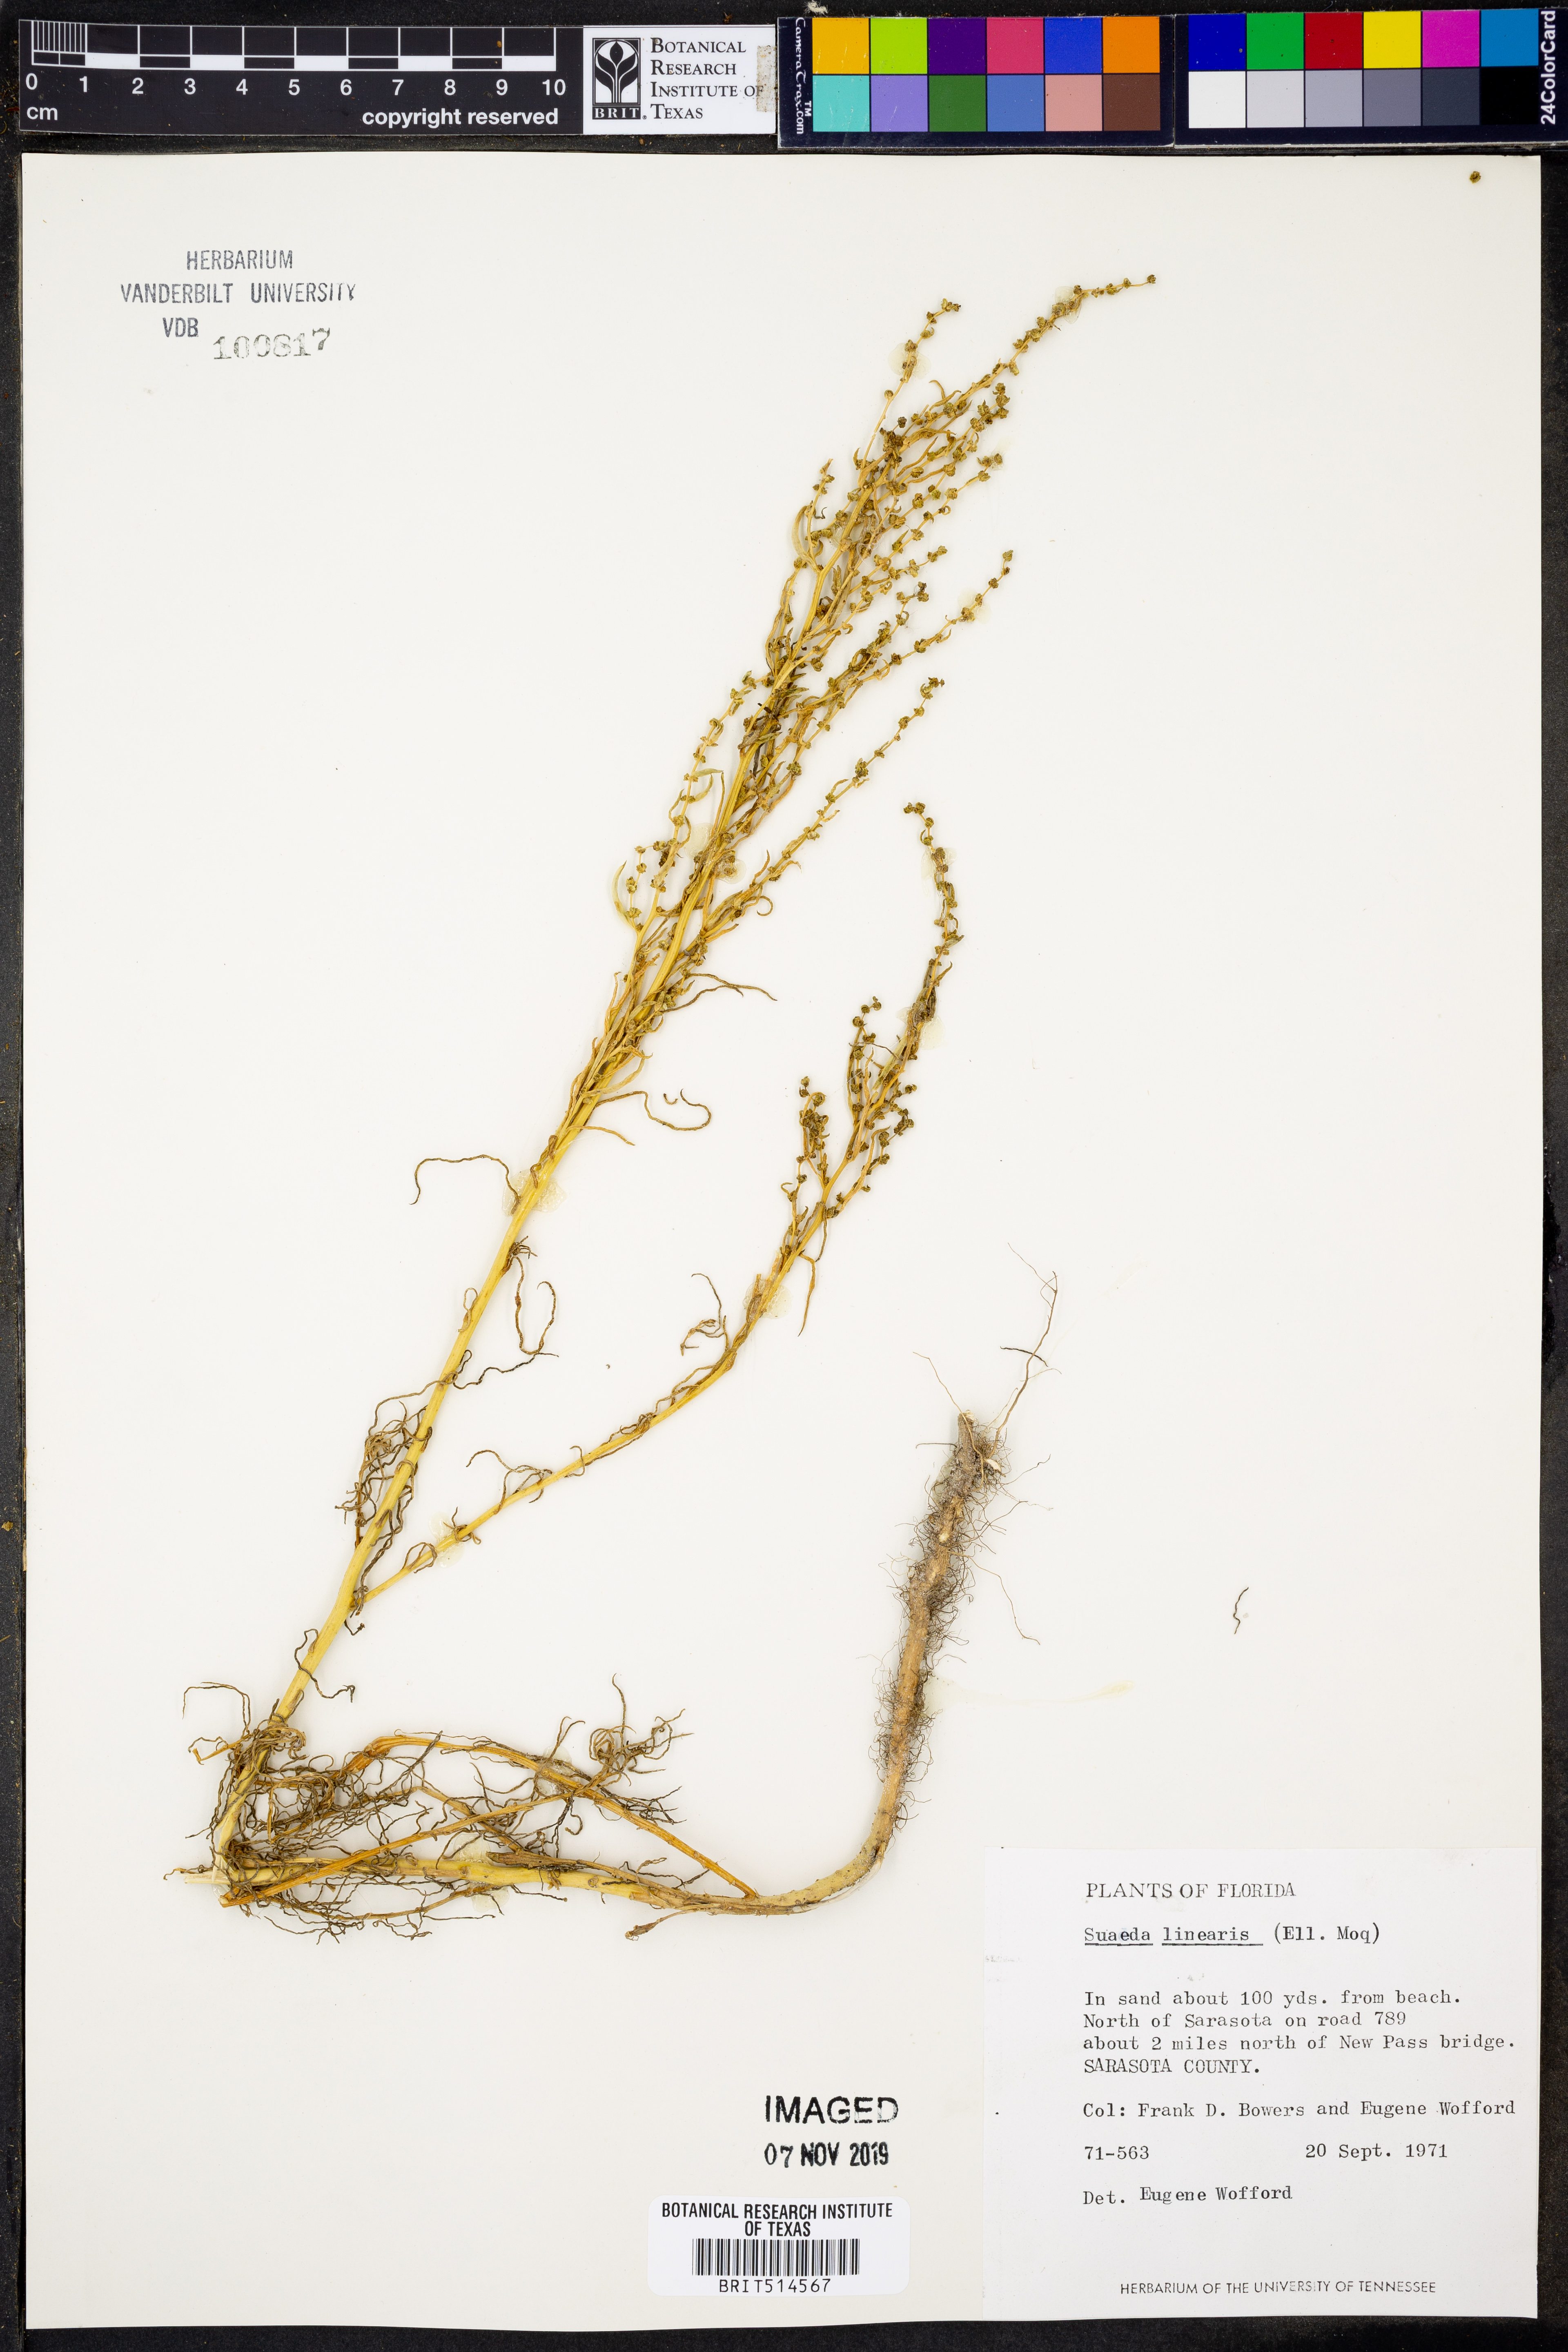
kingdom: Plantae
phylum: Tracheophyta
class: Magnoliopsida
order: Caryophyllales
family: Amaranthaceae
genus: Suaeda
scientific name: Suaeda linearis
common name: Annual seepweed
